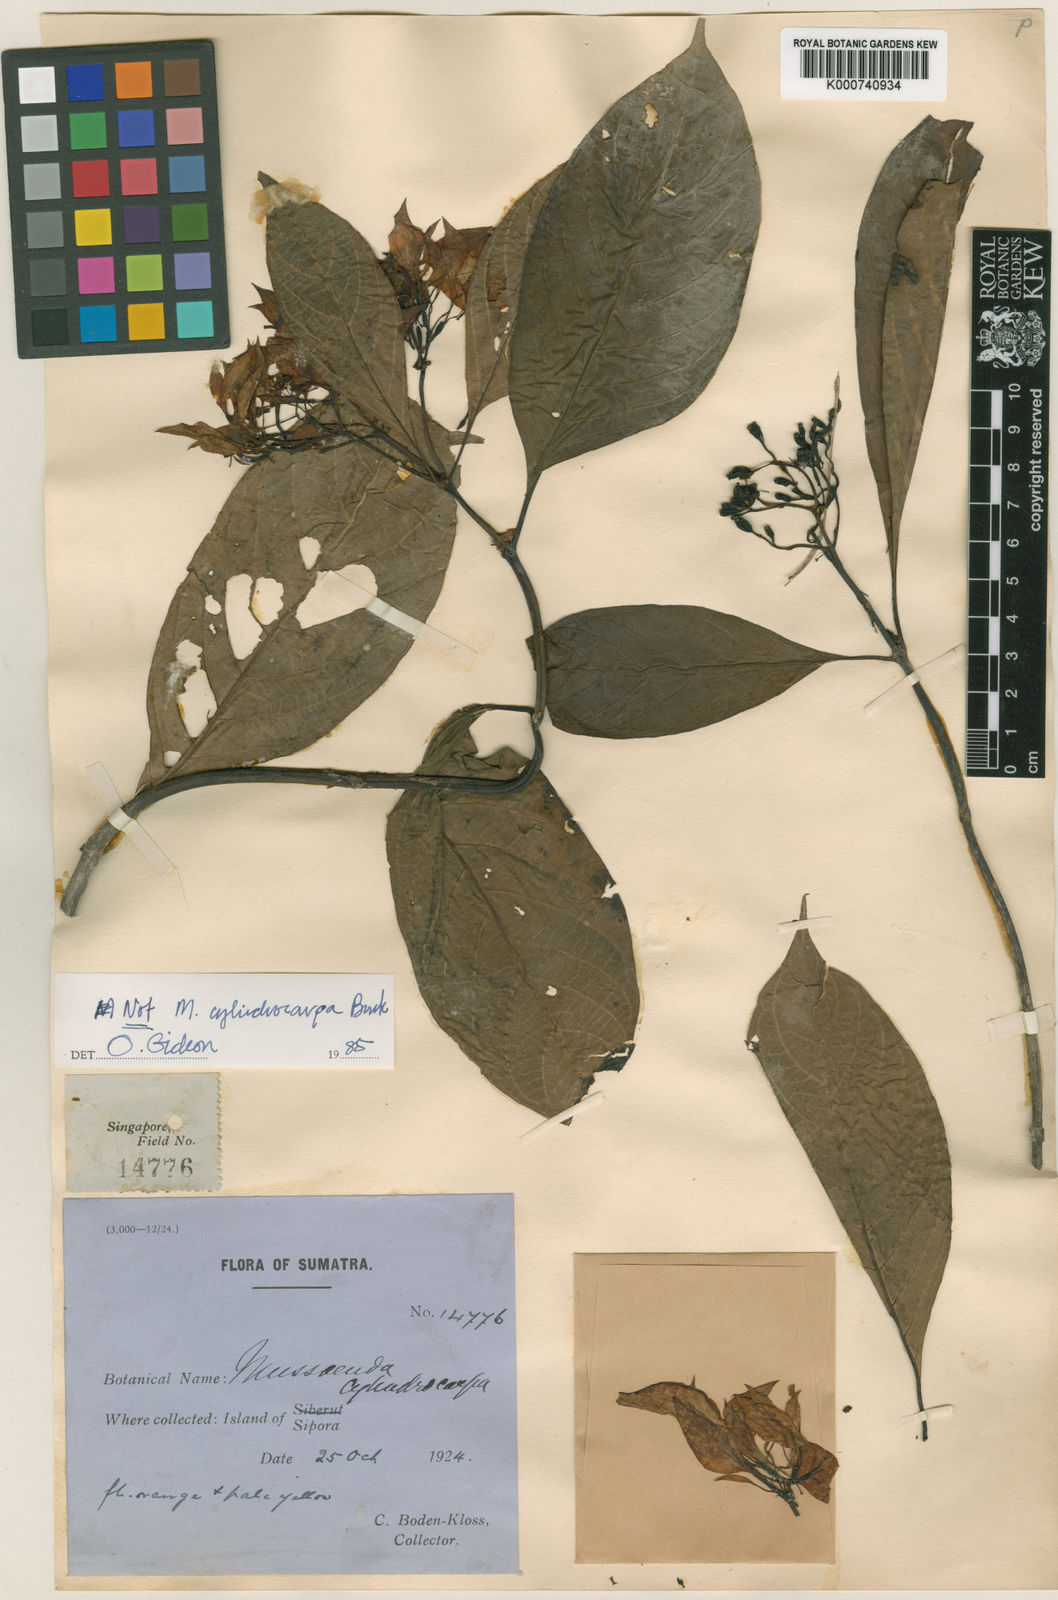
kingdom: Plantae
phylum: Tracheophyta
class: Magnoliopsida
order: Gentianales
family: Rubiaceae
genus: Mussaenda
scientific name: Mussaenda cylindrocarpa
